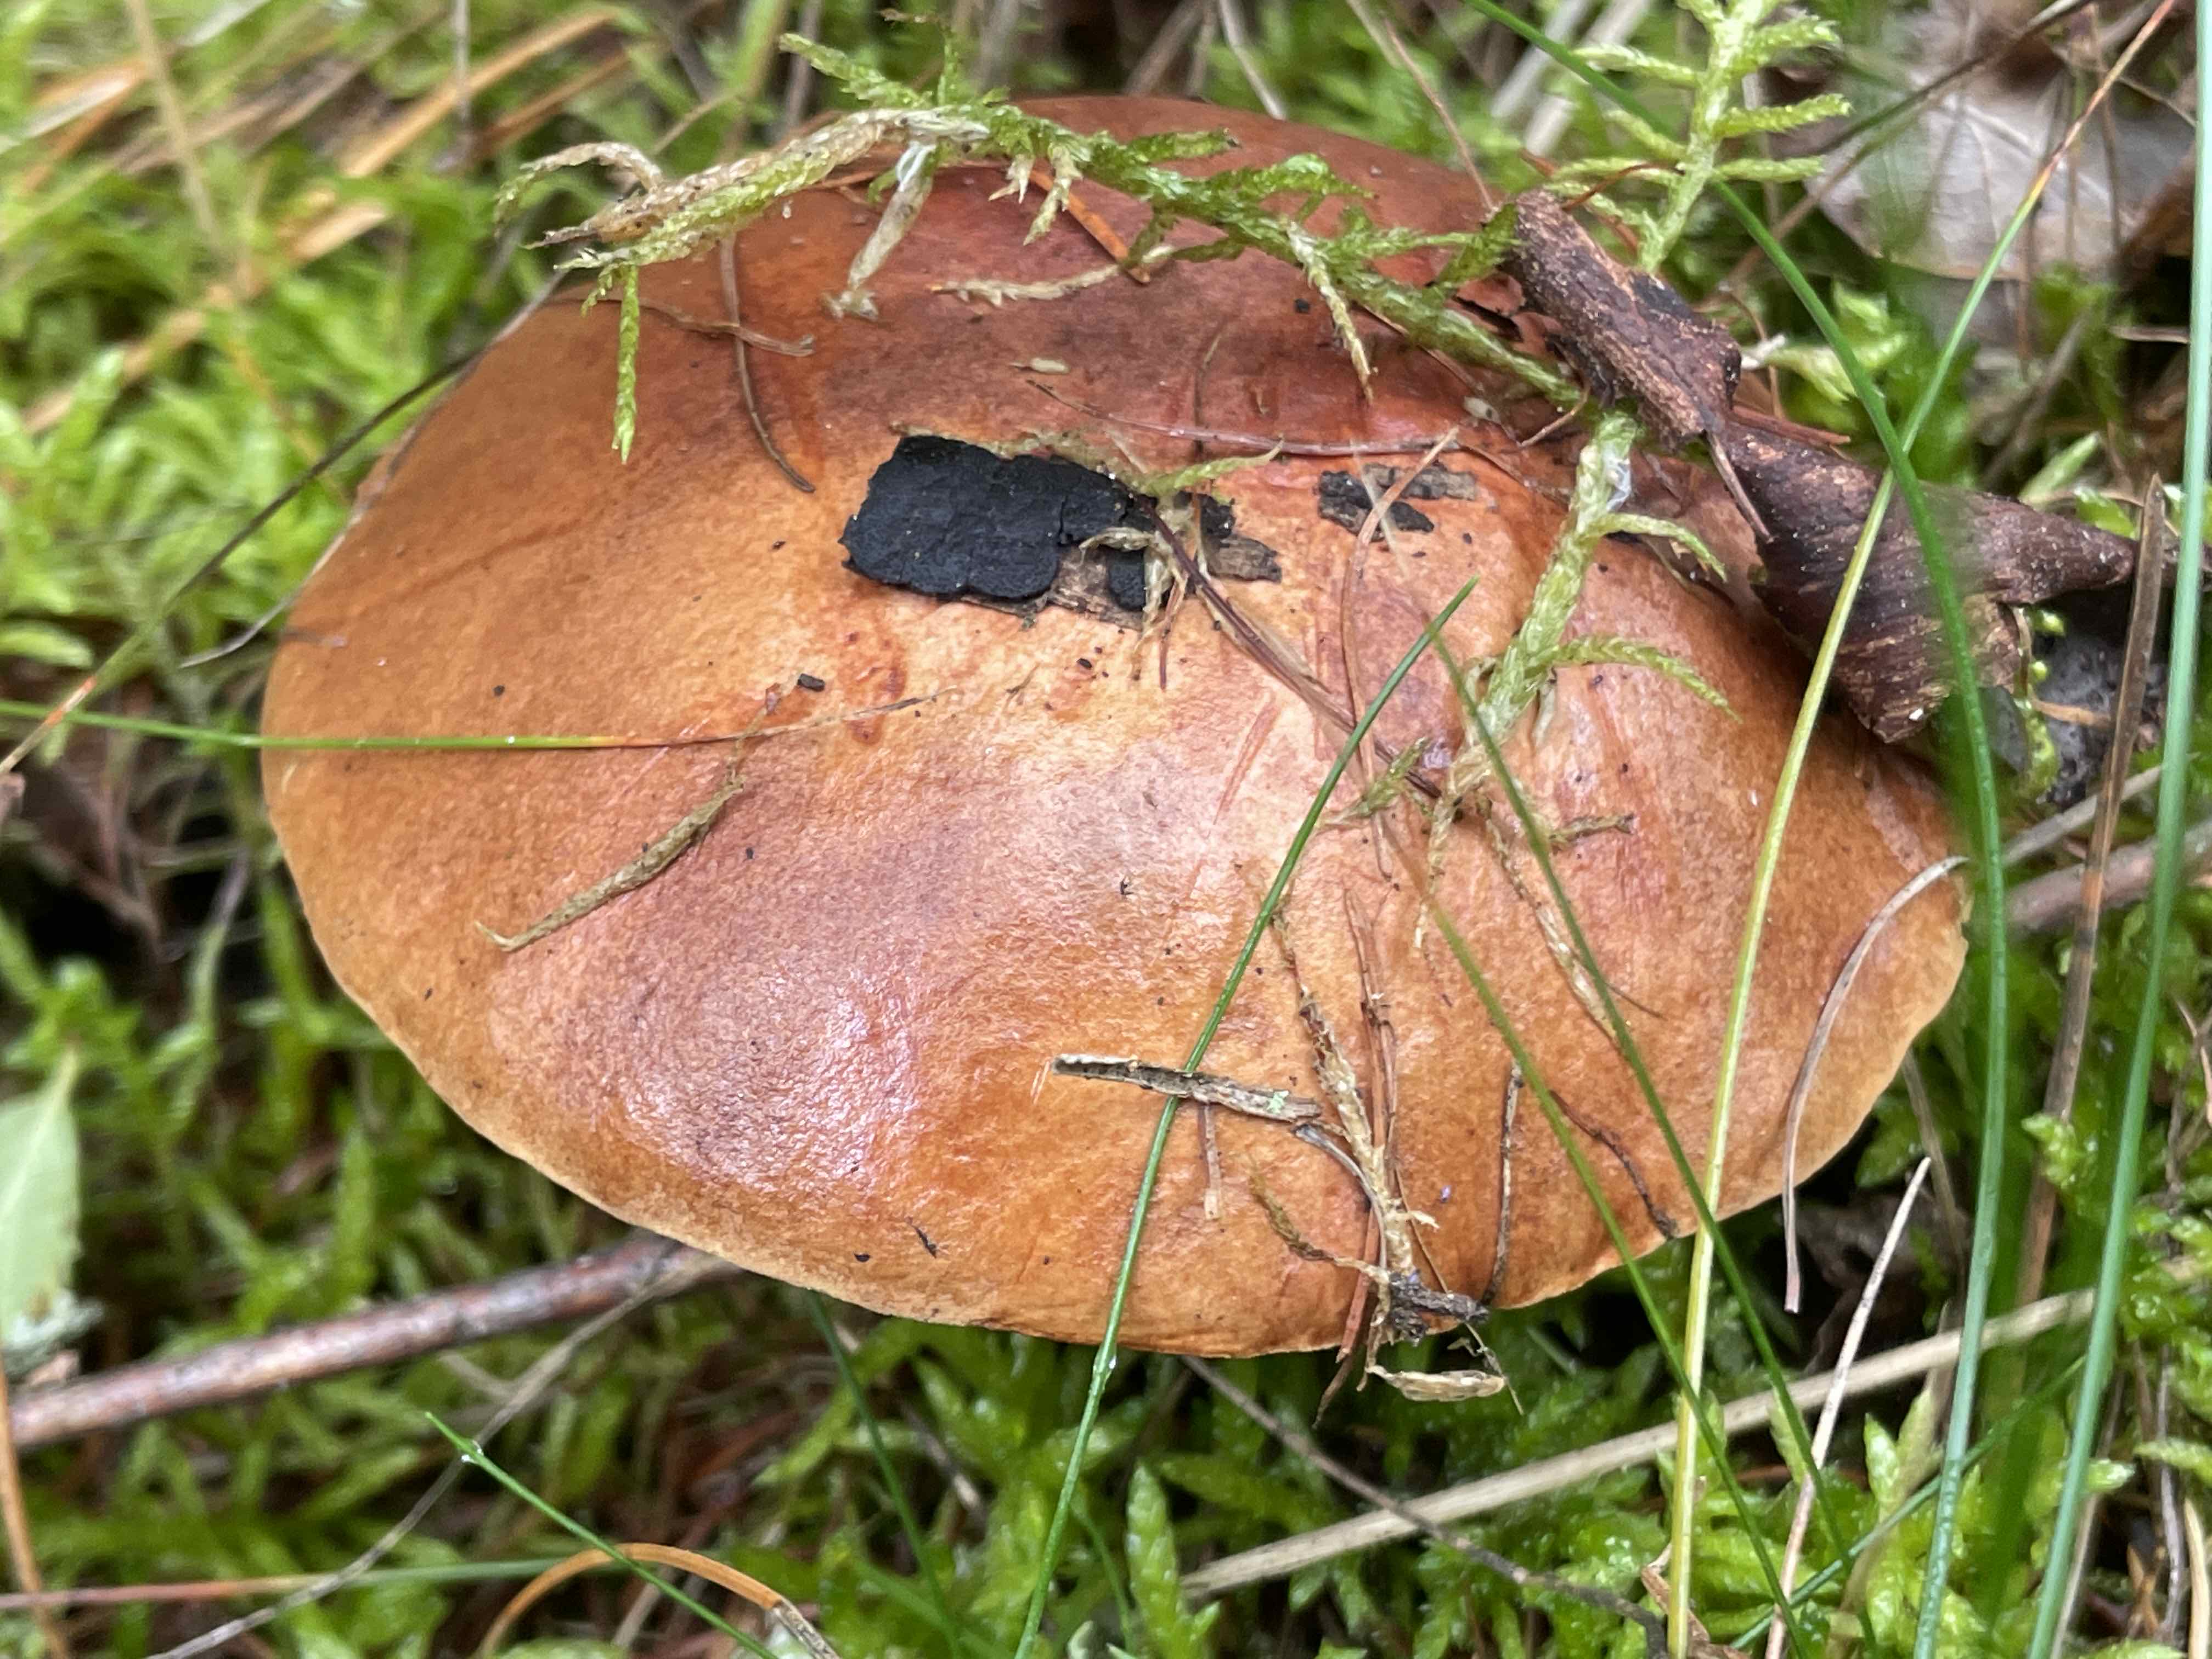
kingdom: Fungi
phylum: Basidiomycota
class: Agaricomycetes
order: Boletales
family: Boletaceae
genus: Imleria
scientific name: Imleria badia
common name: brunstokket rørhat
